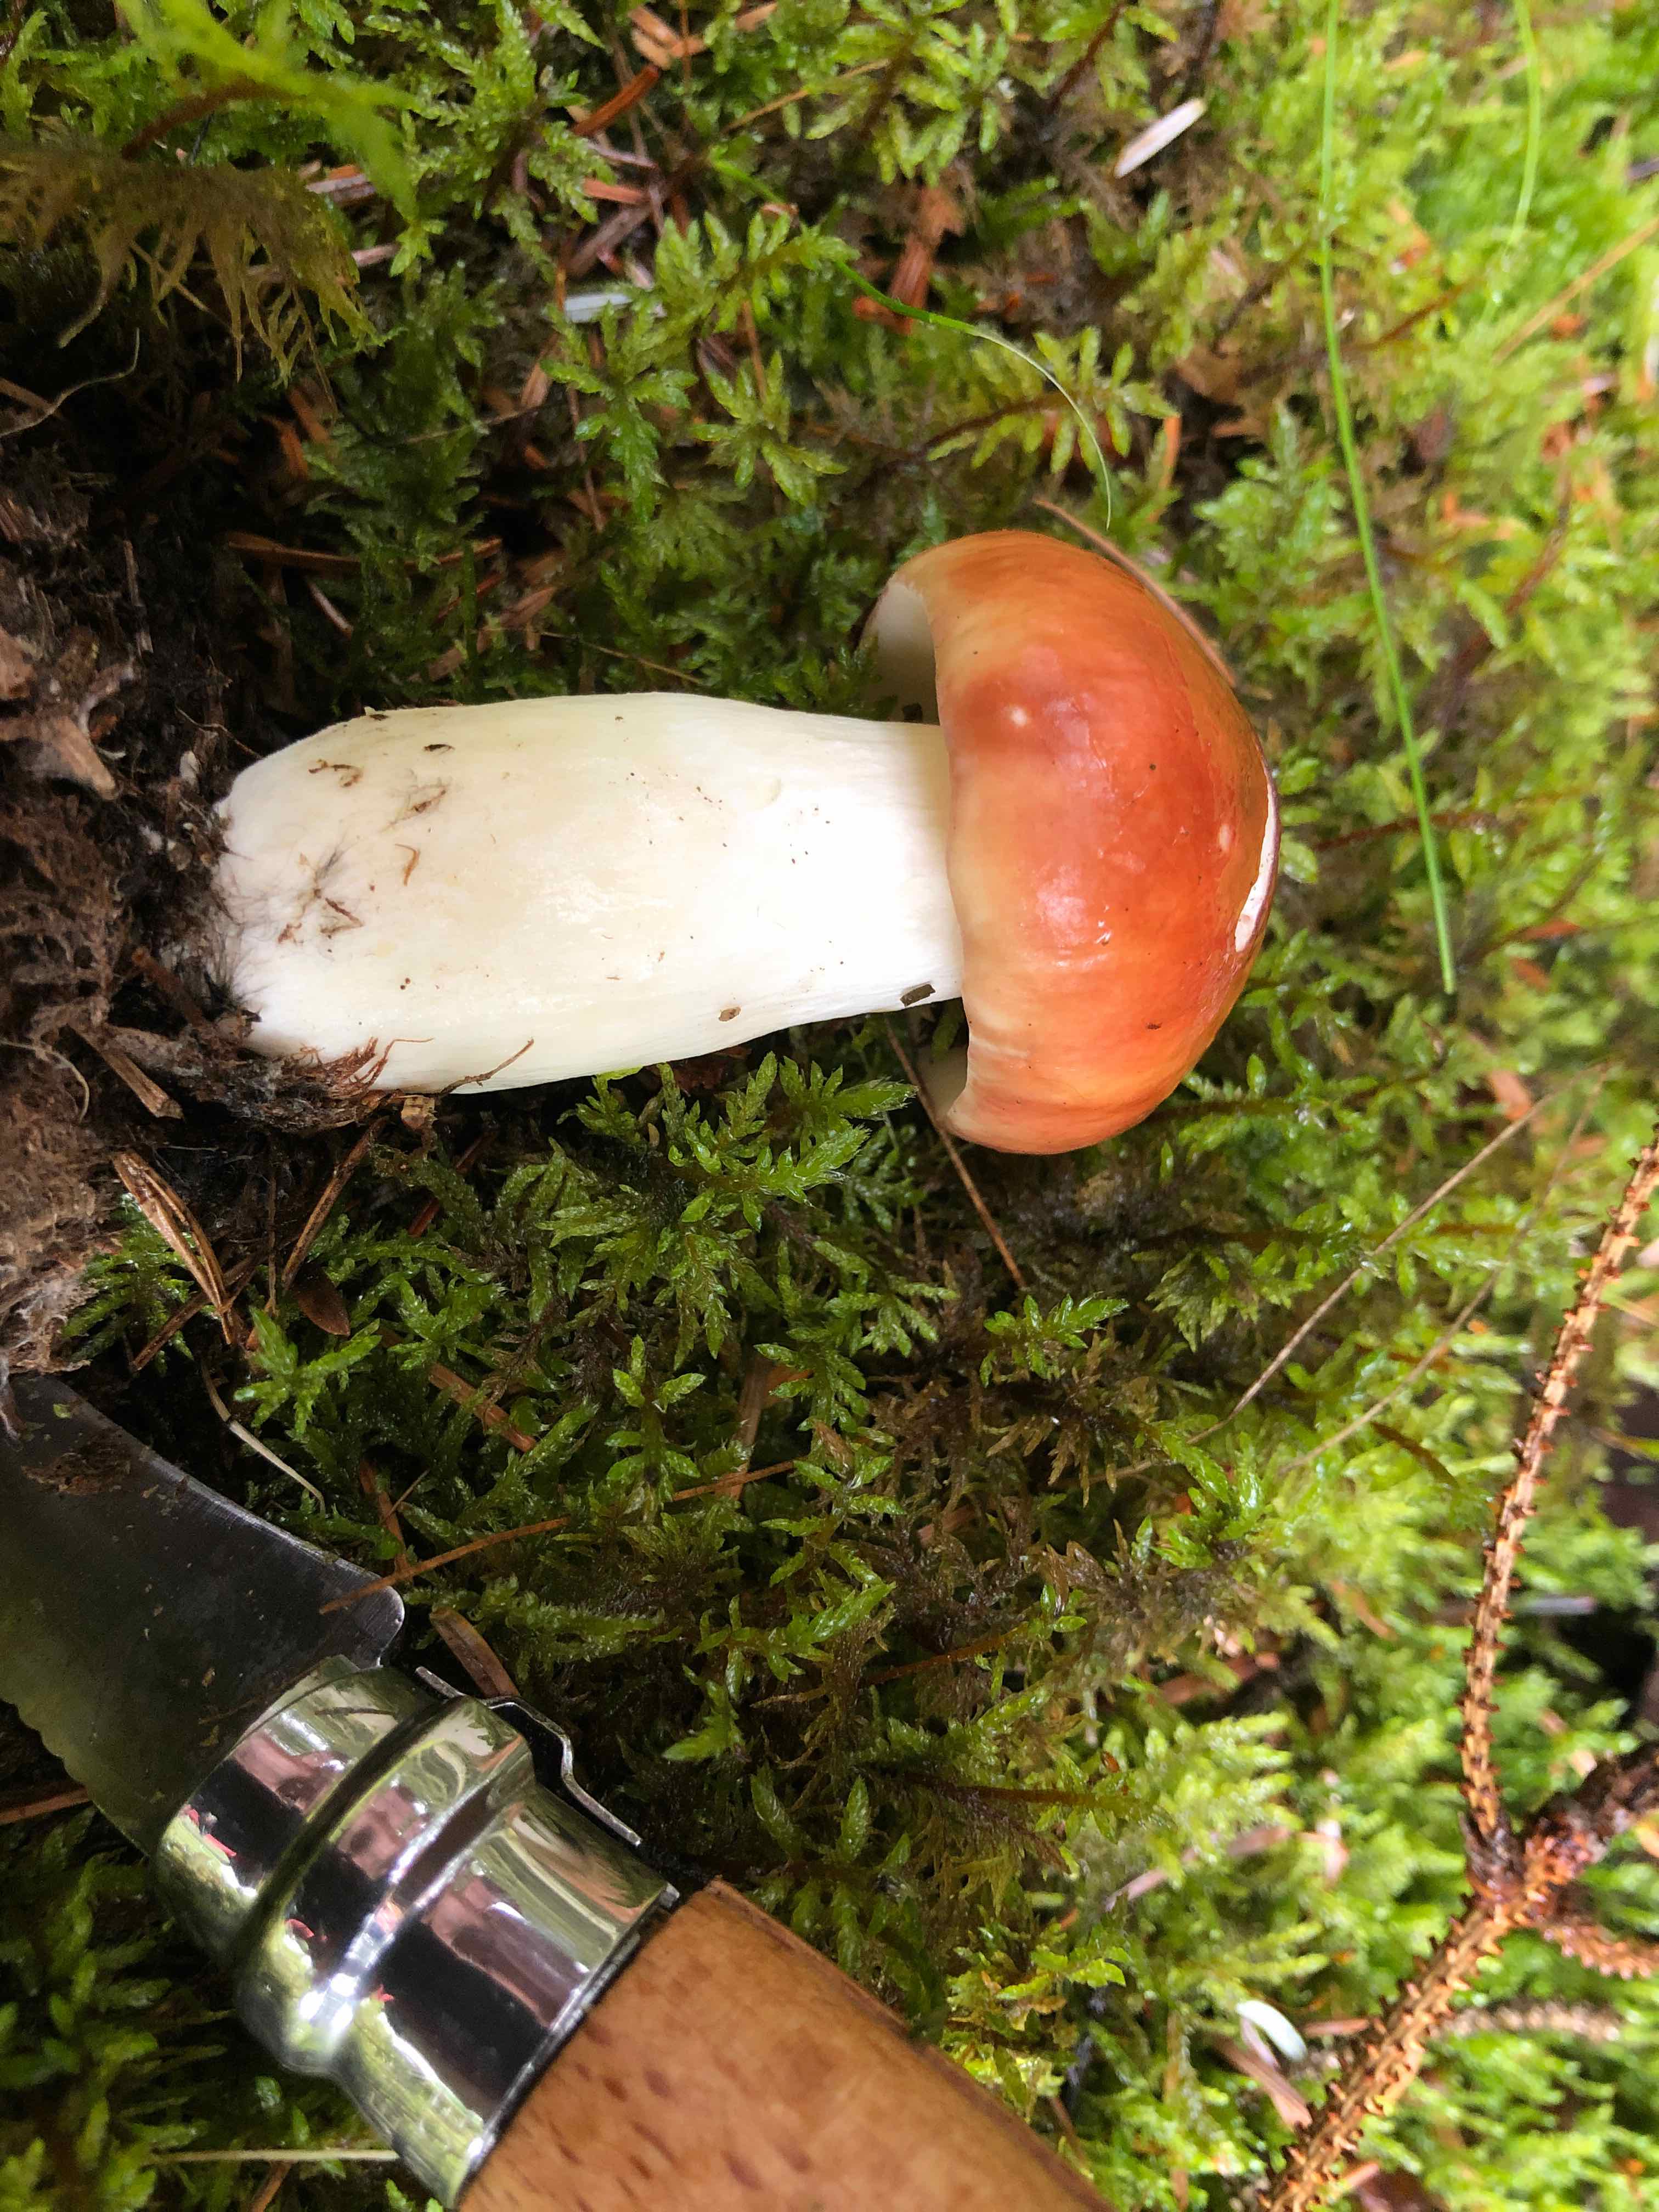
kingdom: Fungi
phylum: Basidiomycota
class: Agaricomycetes
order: Russulales
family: Russulaceae
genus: Russula
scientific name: Russula paludosa
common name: prægtig skørhat
